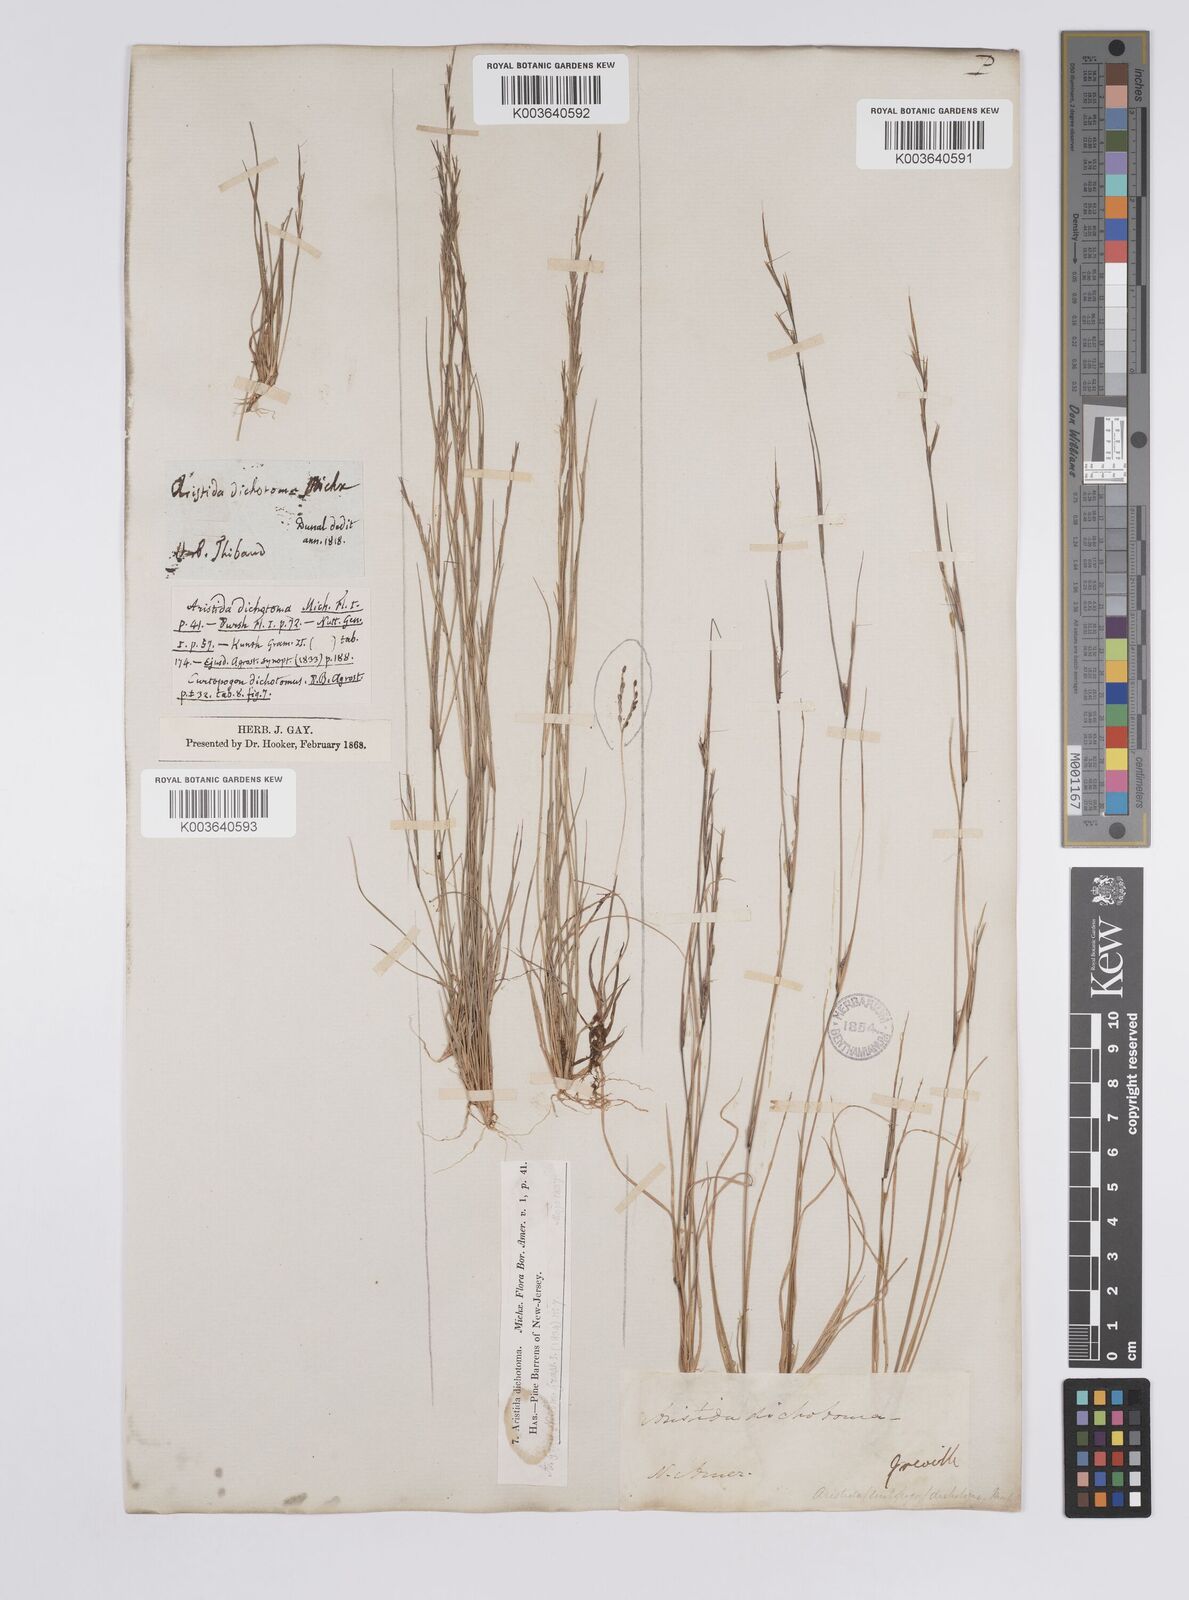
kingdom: Plantae
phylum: Tracheophyta
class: Liliopsida
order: Poales
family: Poaceae
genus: Aristida
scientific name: Aristida dichotoma
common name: Churchmouse three-awn
